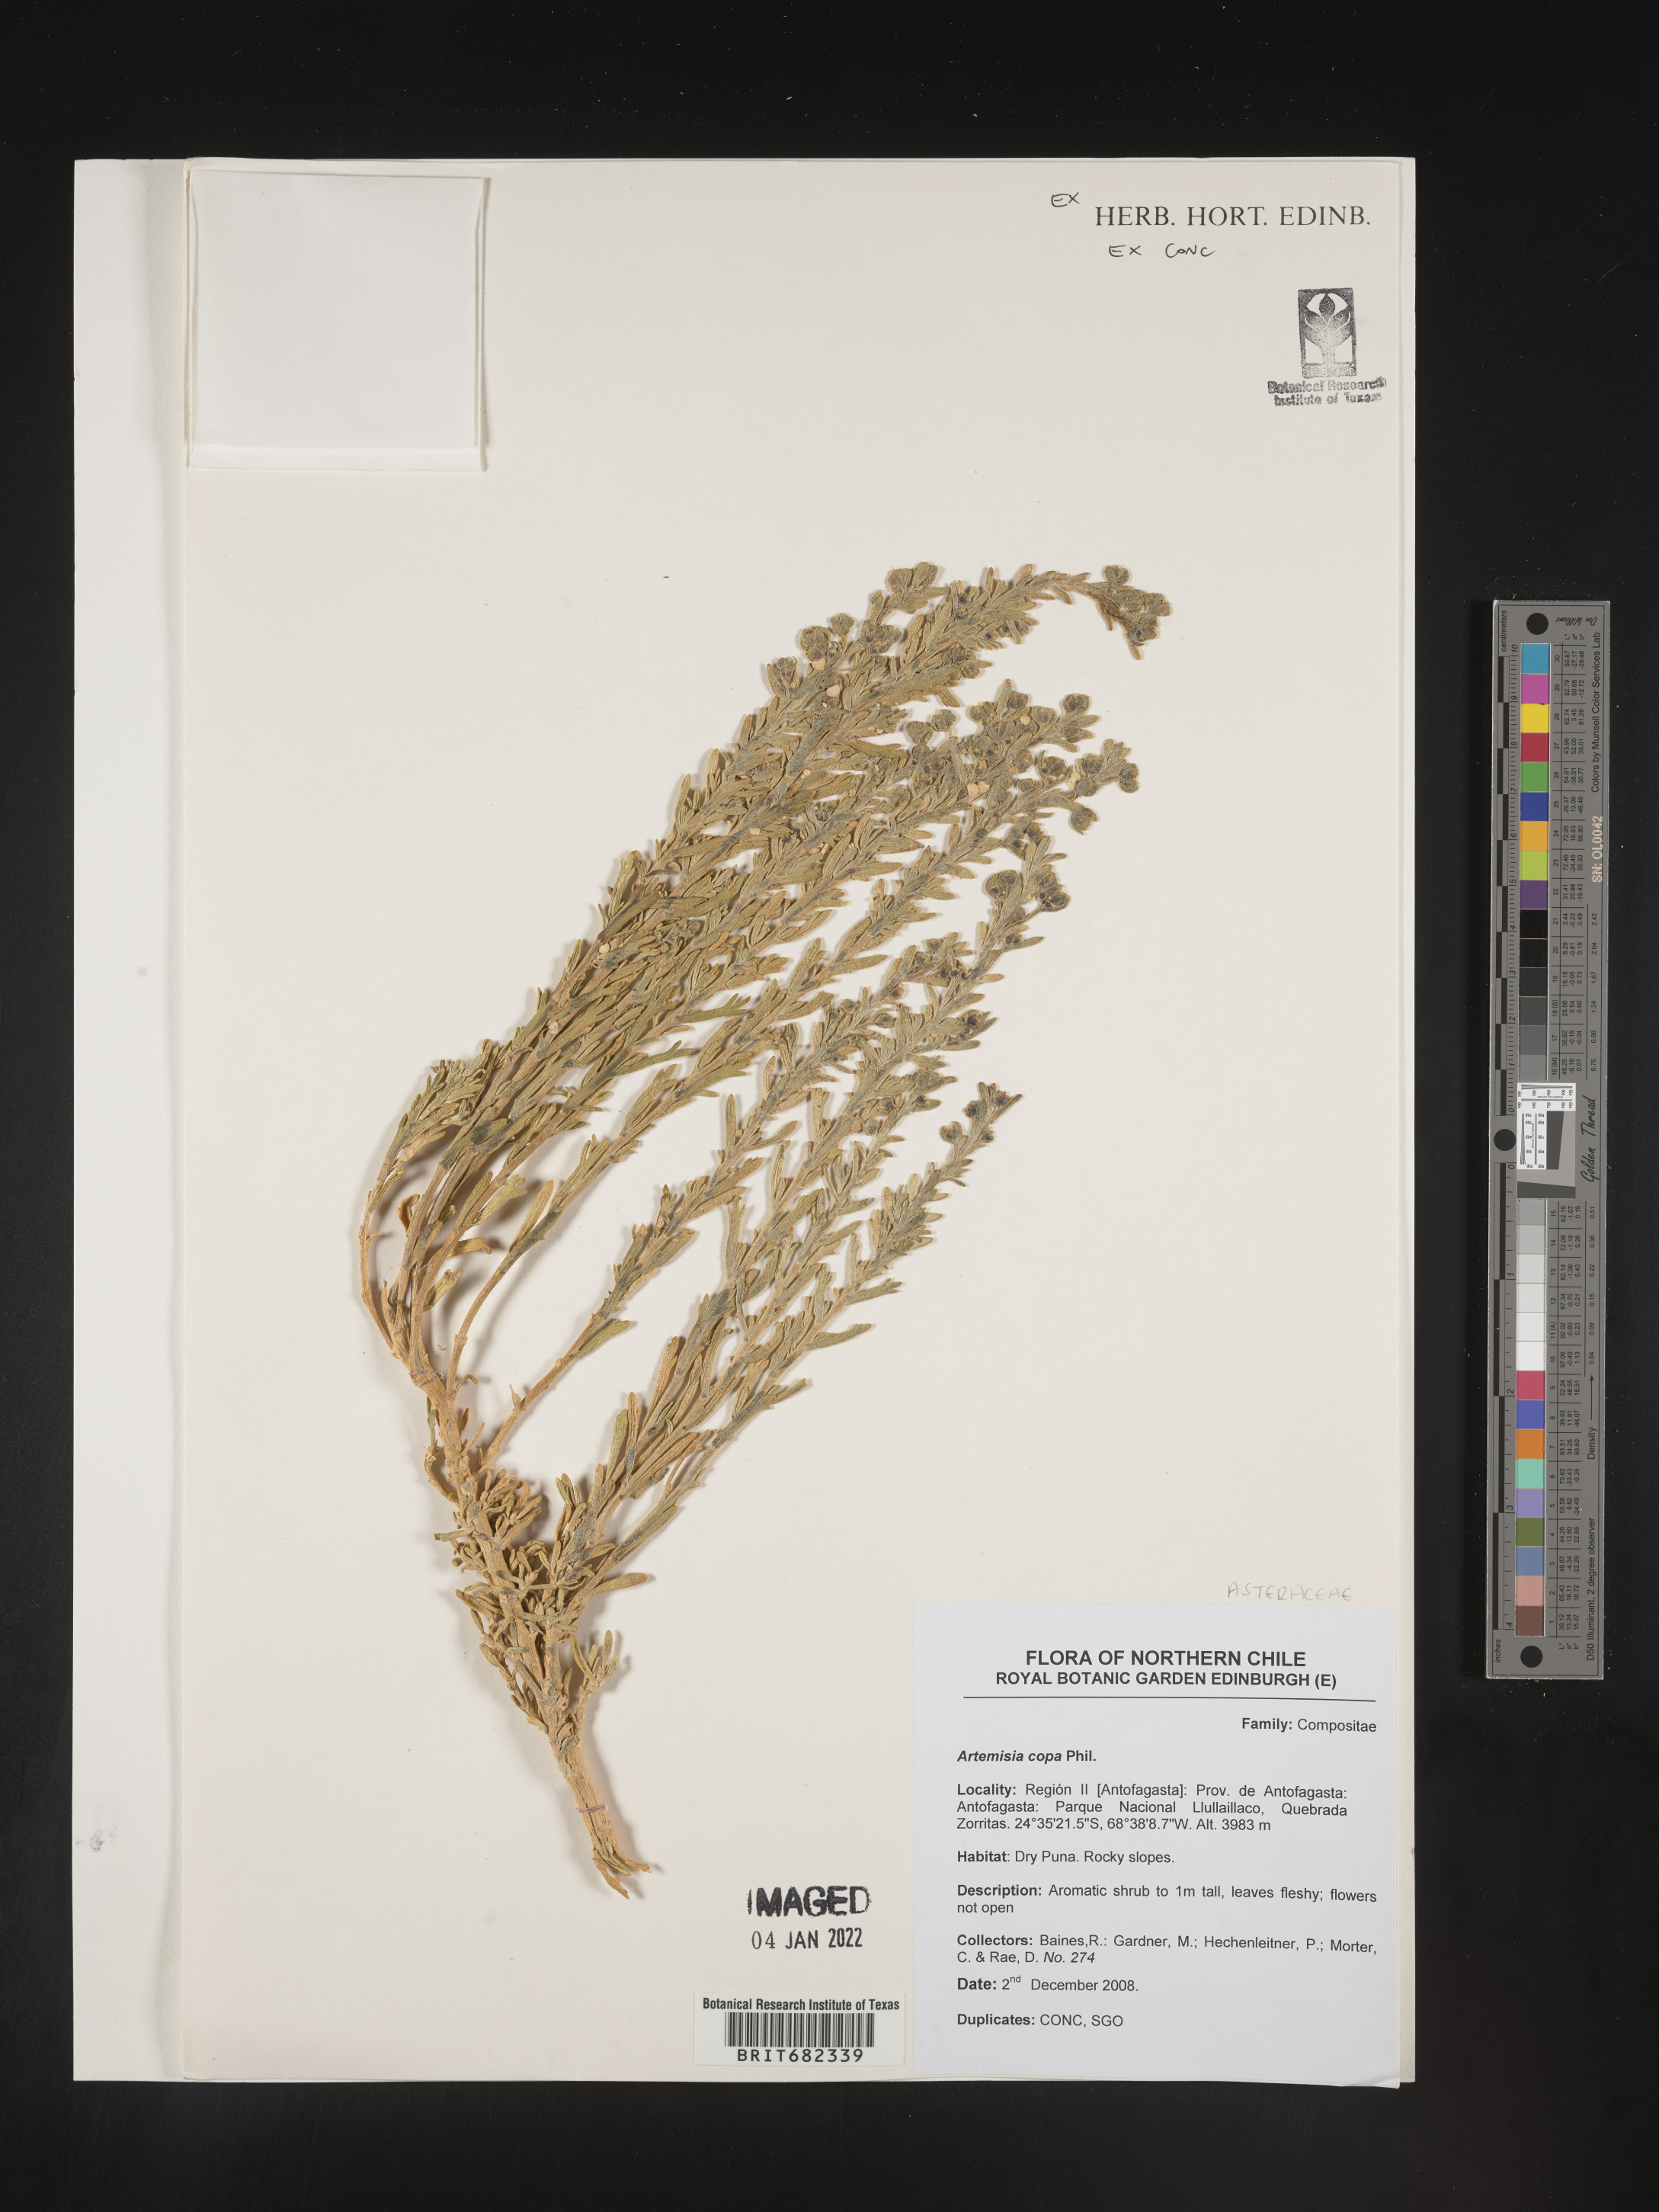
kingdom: Plantae
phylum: Tracheophyta
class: Magnoliopsida
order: Asterales
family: Asteraceae
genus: Artemisia
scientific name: Artemisia
